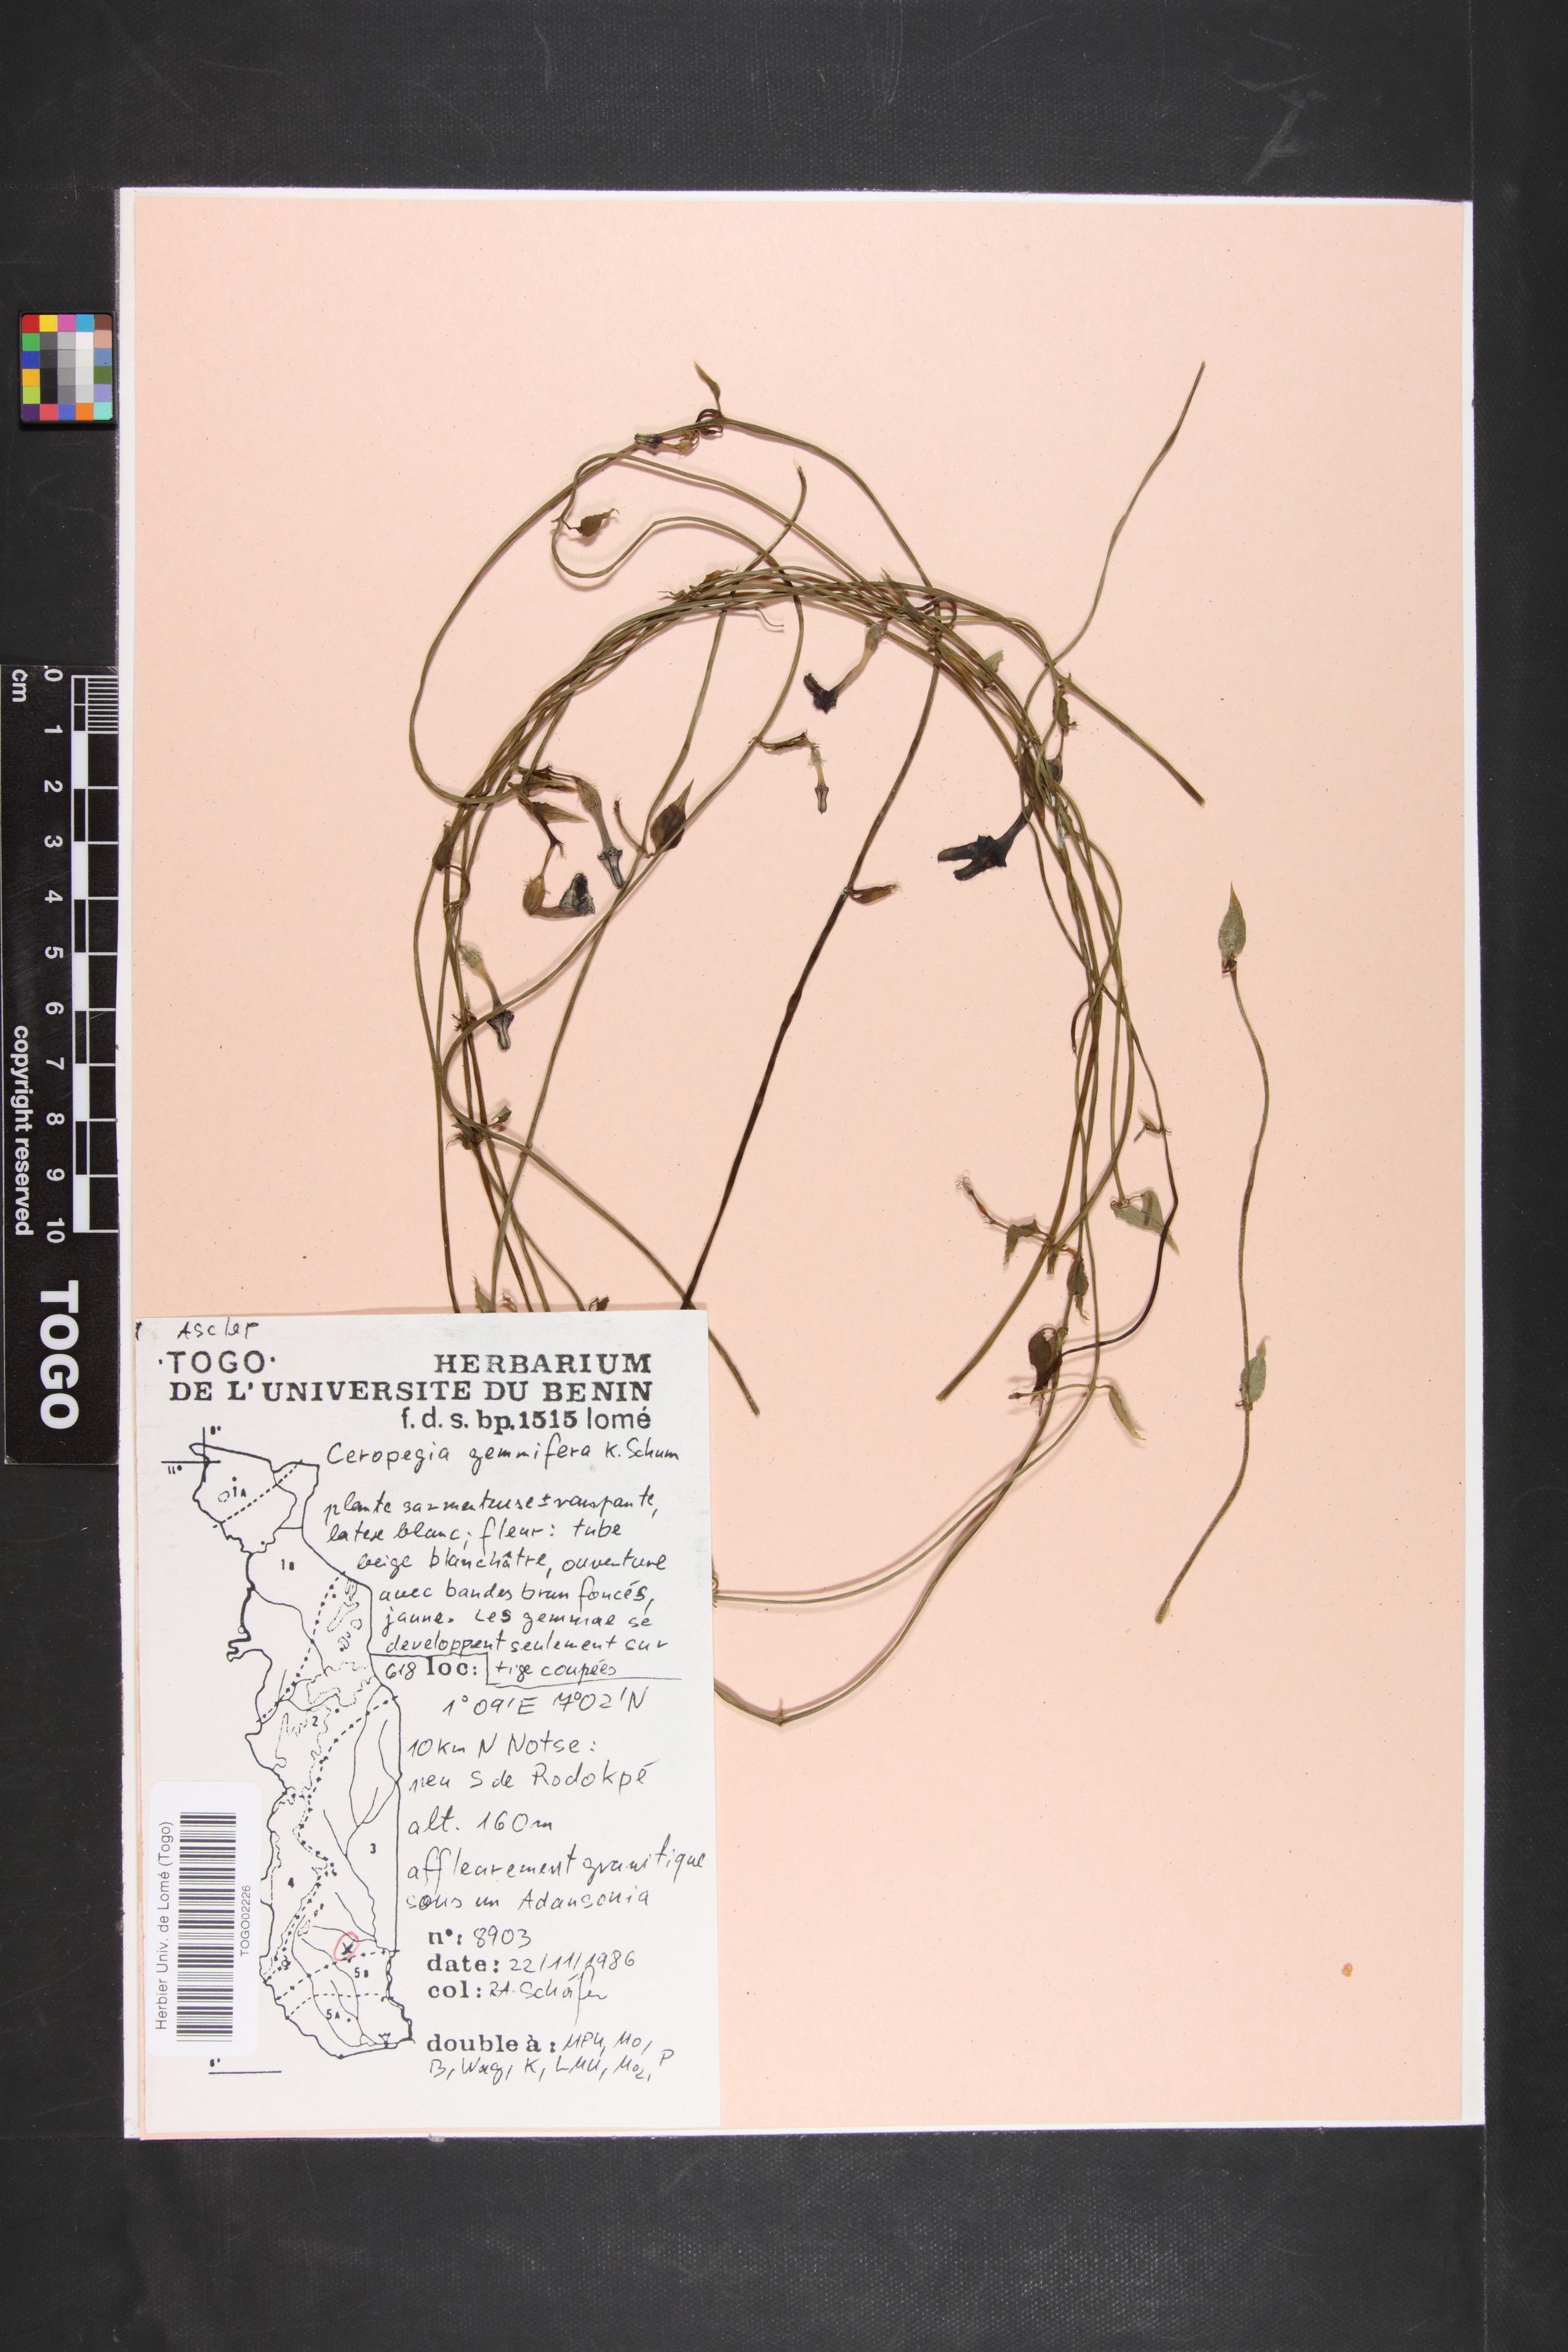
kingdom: Plantae
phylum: Tracheophyta
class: Magnoliopsida
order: Gentianales
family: Apocynaceae
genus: Ceropegia
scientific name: Ceropegia nilotica
